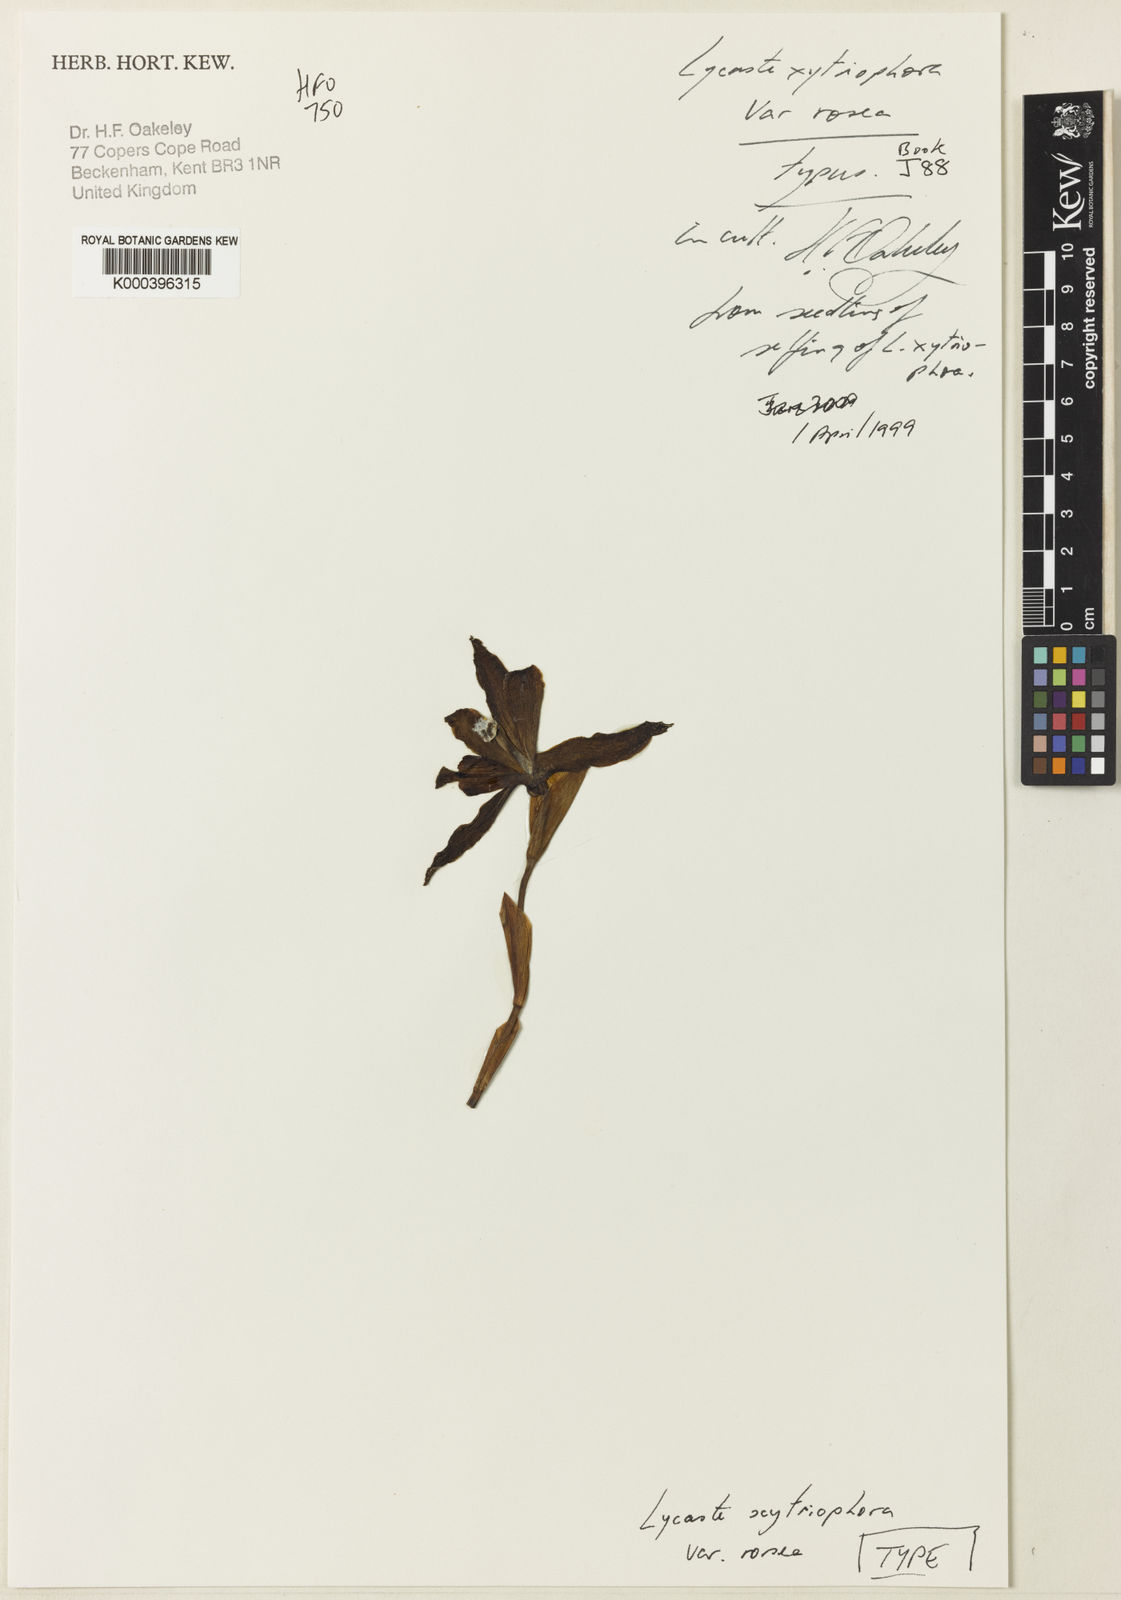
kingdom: Plantae
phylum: Tracheophyta
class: Liliopsida
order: Asparagales
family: Orchidaceae
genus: Lycaste
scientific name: Lycaste xytriophora
